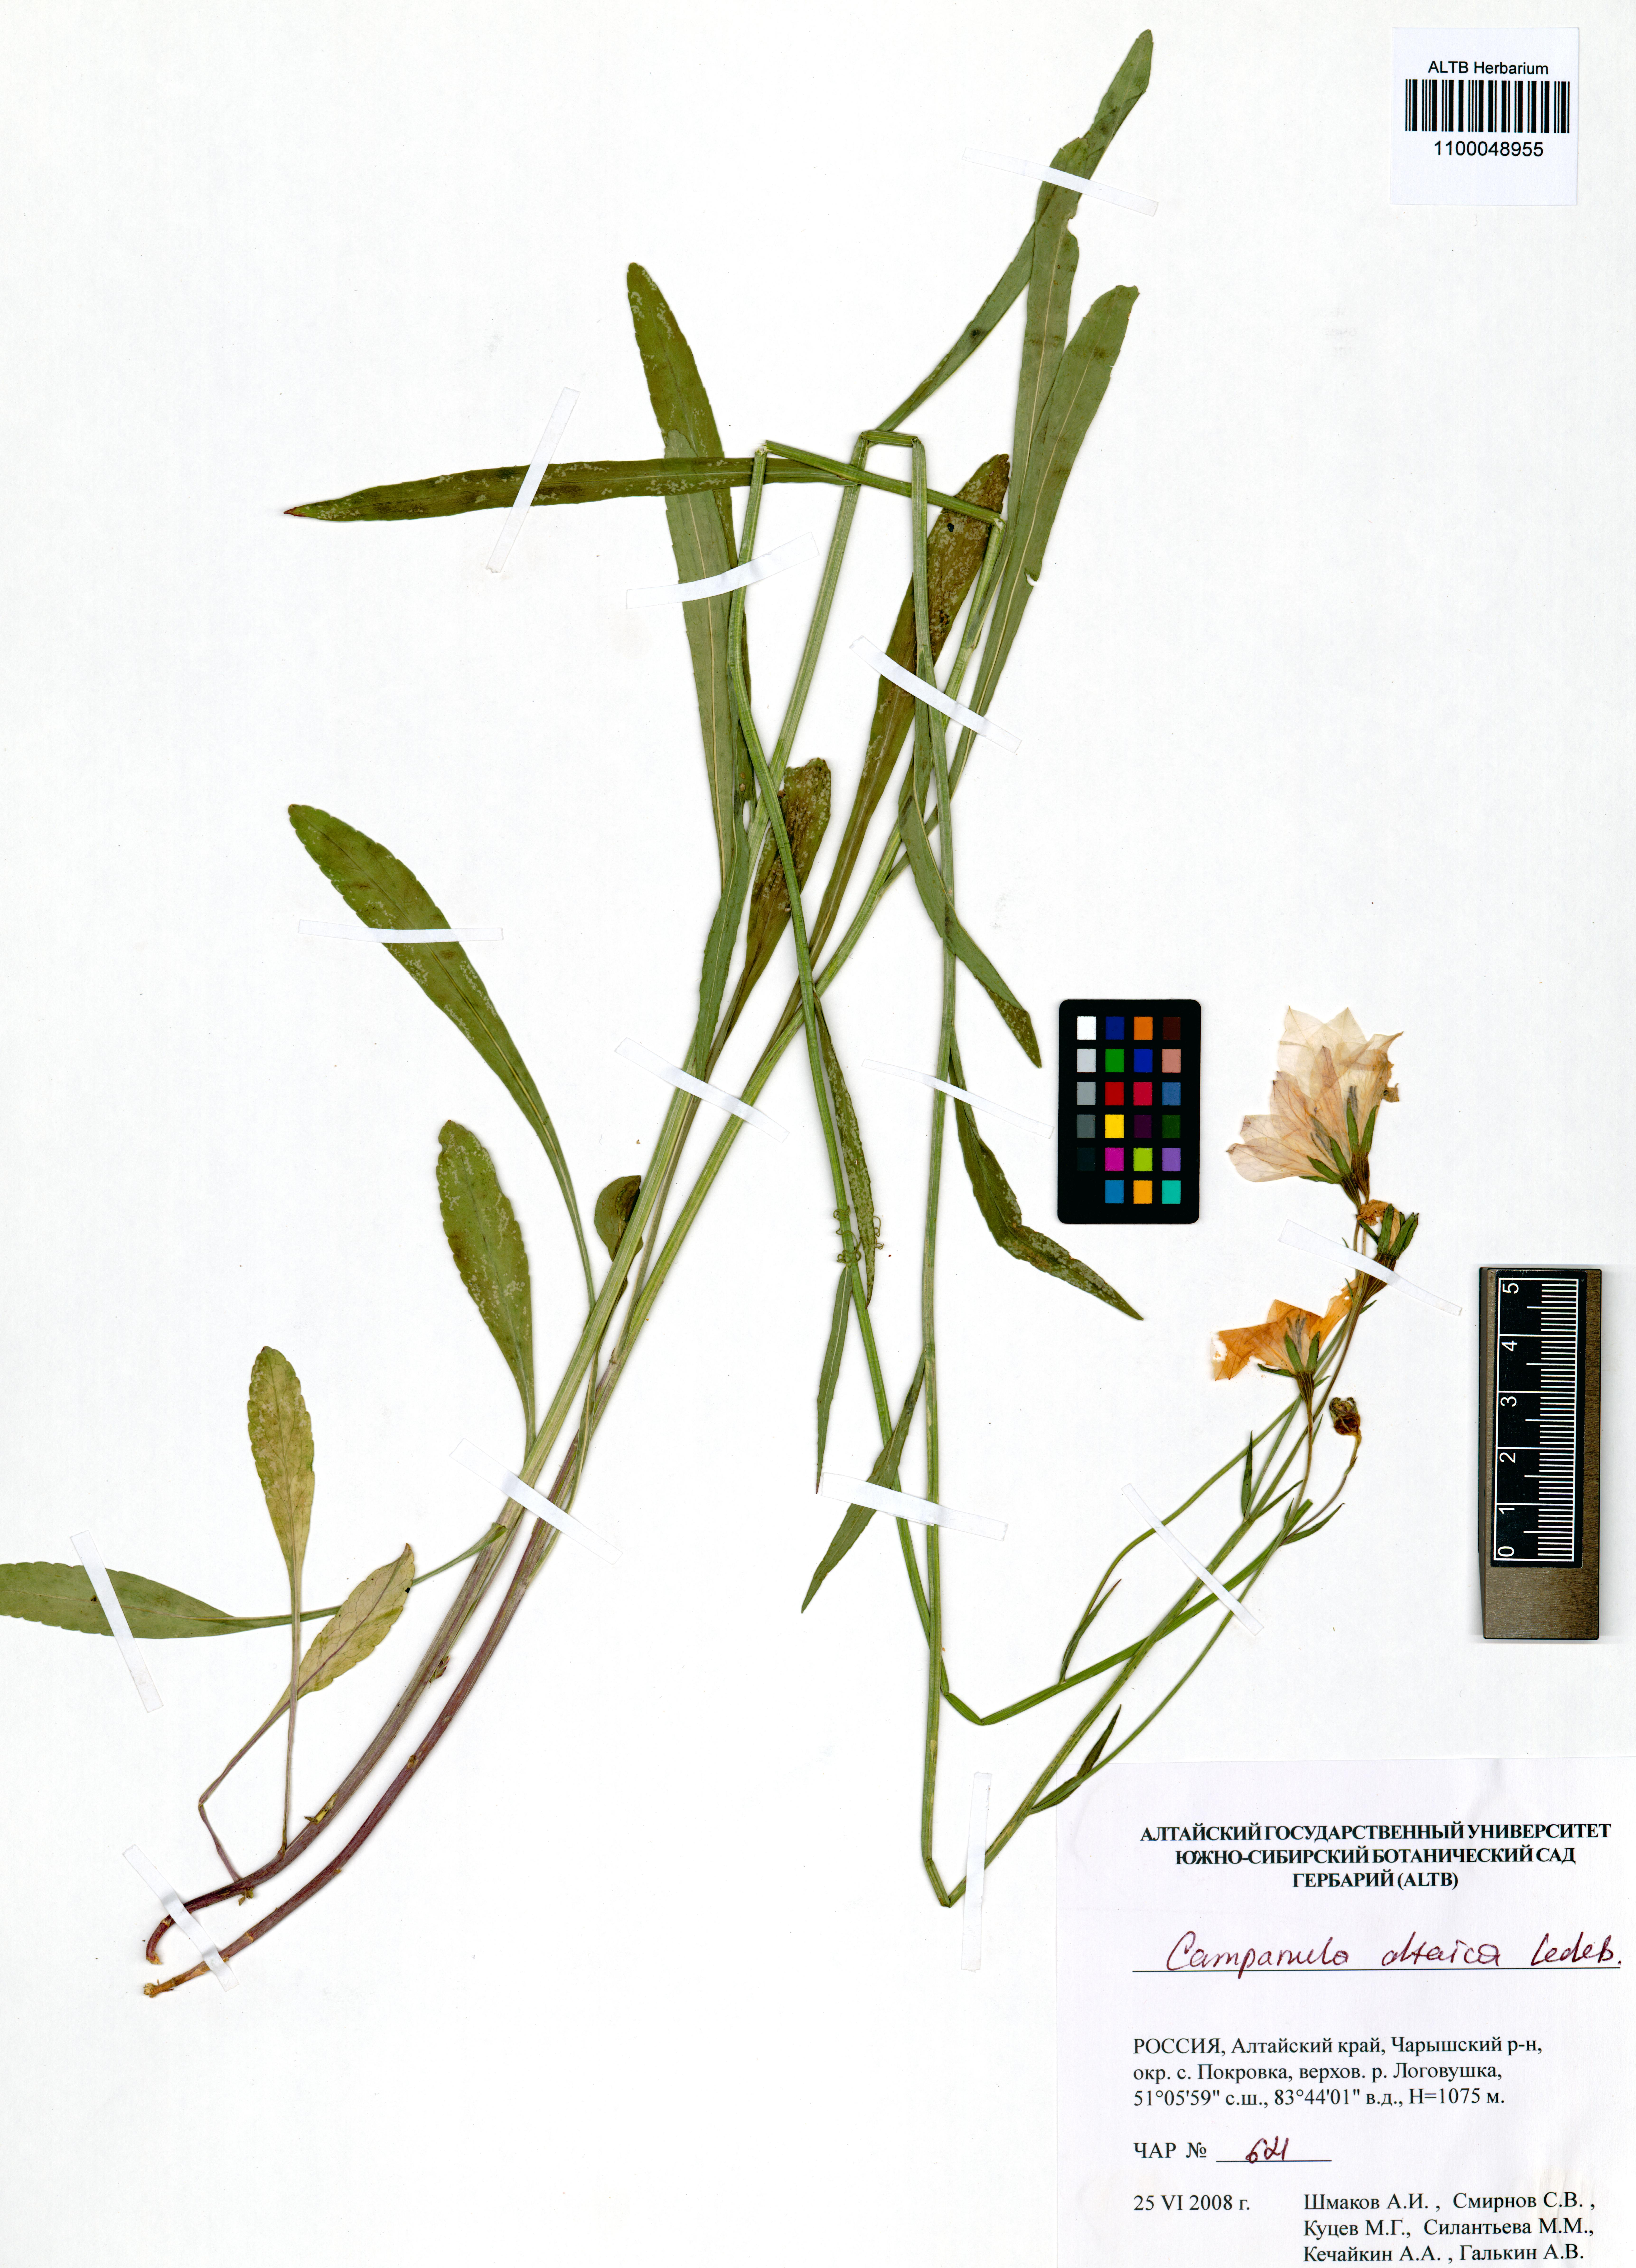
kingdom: Plantae
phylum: Tracheophyta
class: Magnoliopsida
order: Asterales
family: Campanulaceae
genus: Campanula
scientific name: Campanula stevenii
